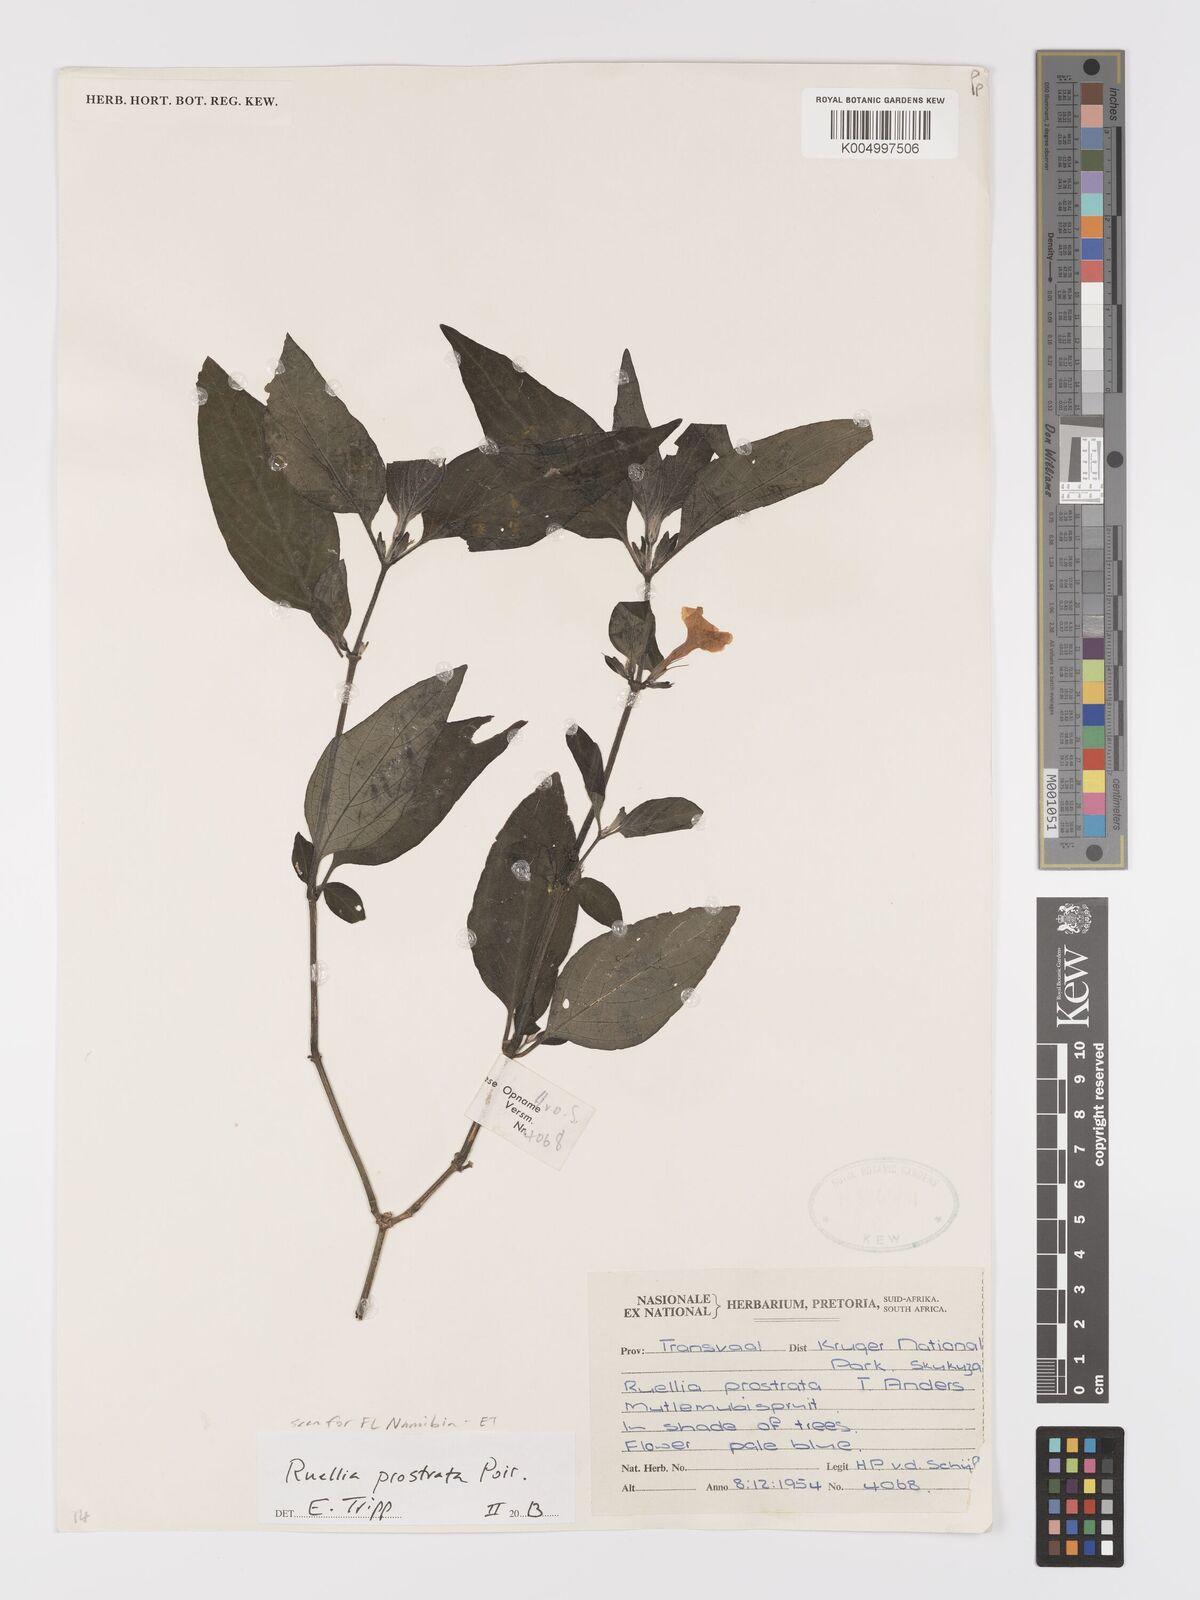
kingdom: Plantae
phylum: Tracheophyta
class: Magnoliopsida
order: Lamiales
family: Acanthaceae
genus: Ruellia
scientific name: Ruellia
